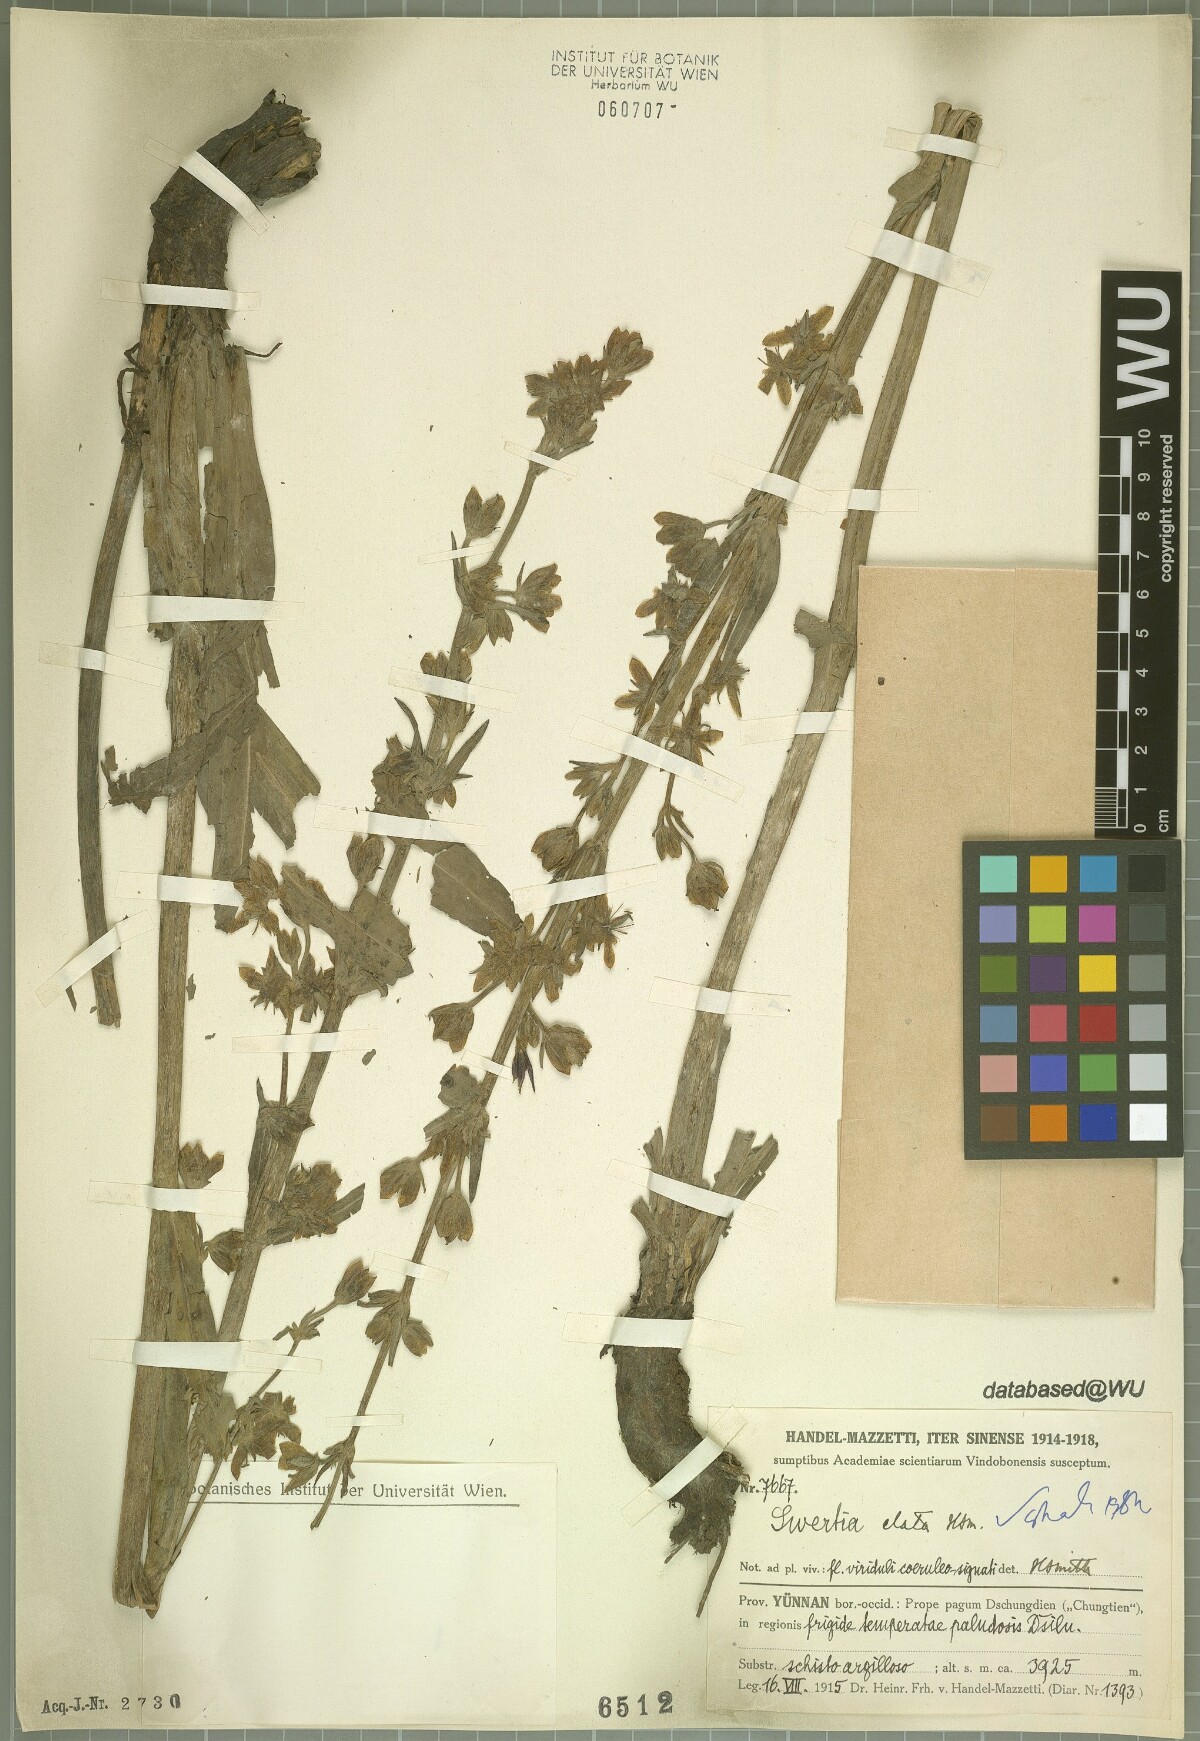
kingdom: Plantae
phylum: Tracheophyta
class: Magnoliopsida
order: Gentianales
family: Gentianaceae
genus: Swertia
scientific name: Swertia elata
